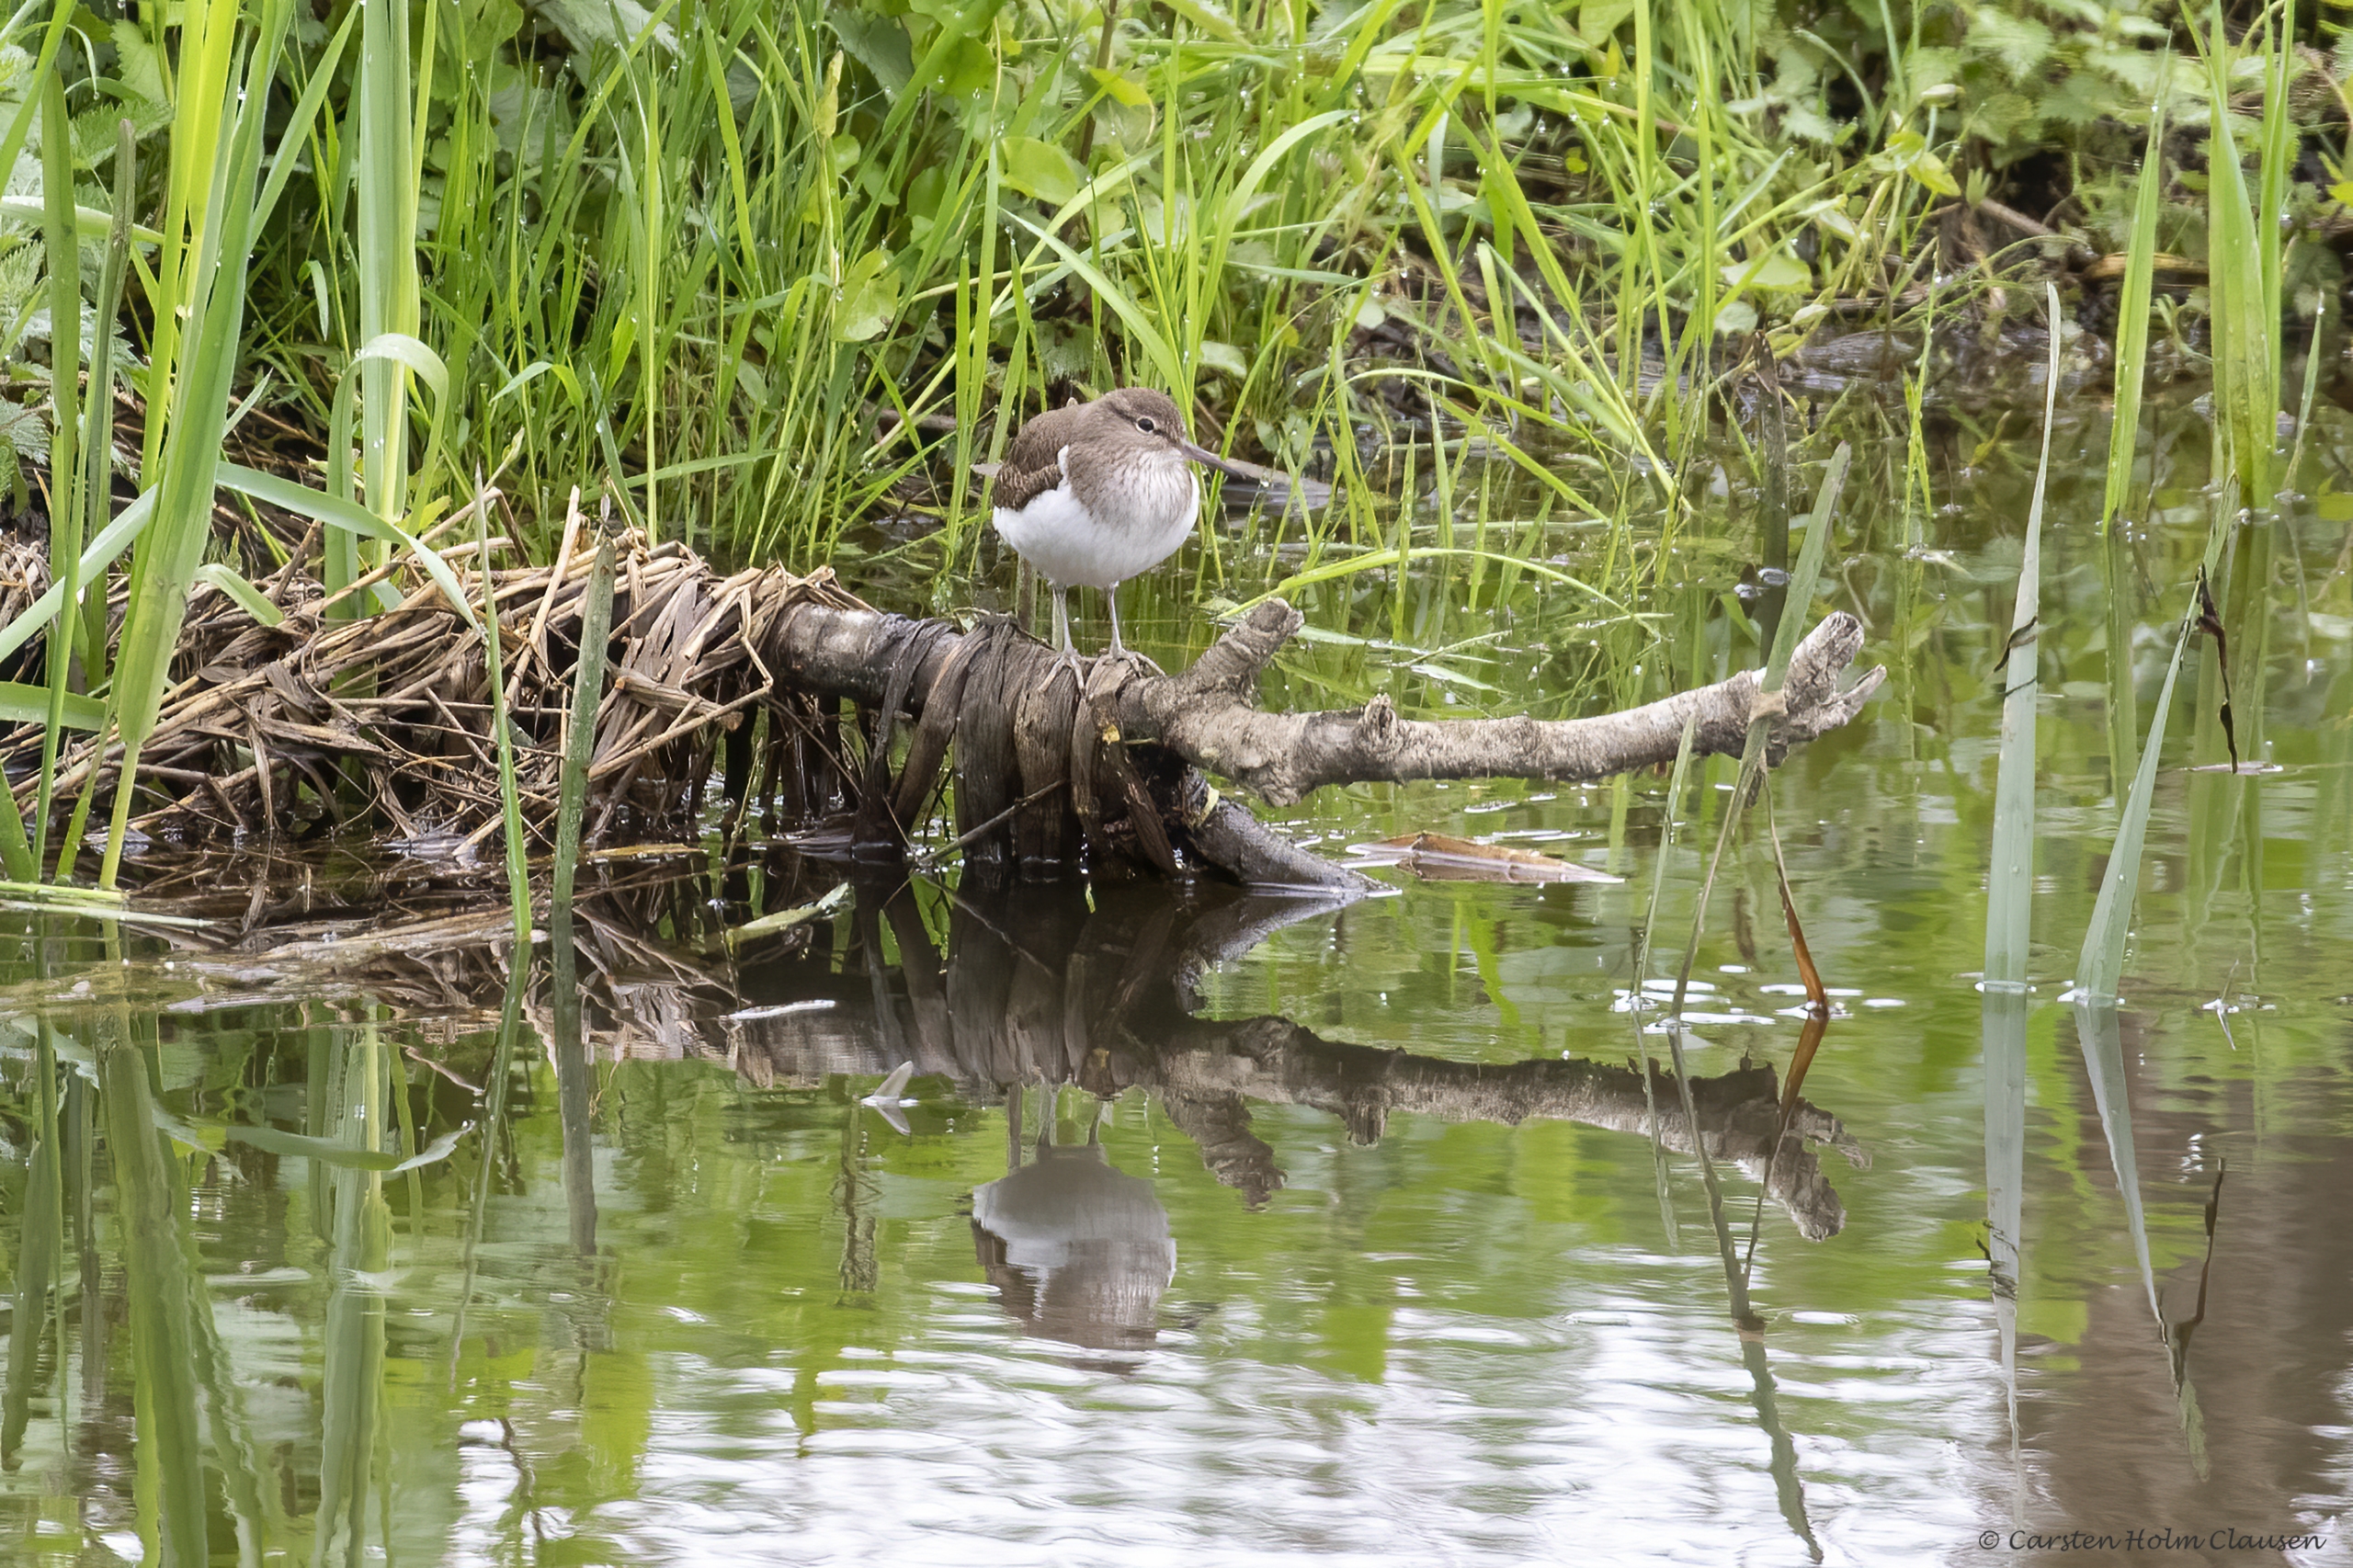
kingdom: Animalia
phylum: Chordata
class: Aves
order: Charadriiformes
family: Scolopacidae
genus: Actitis
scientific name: Actitis hypoleucos
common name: Mudderklire
